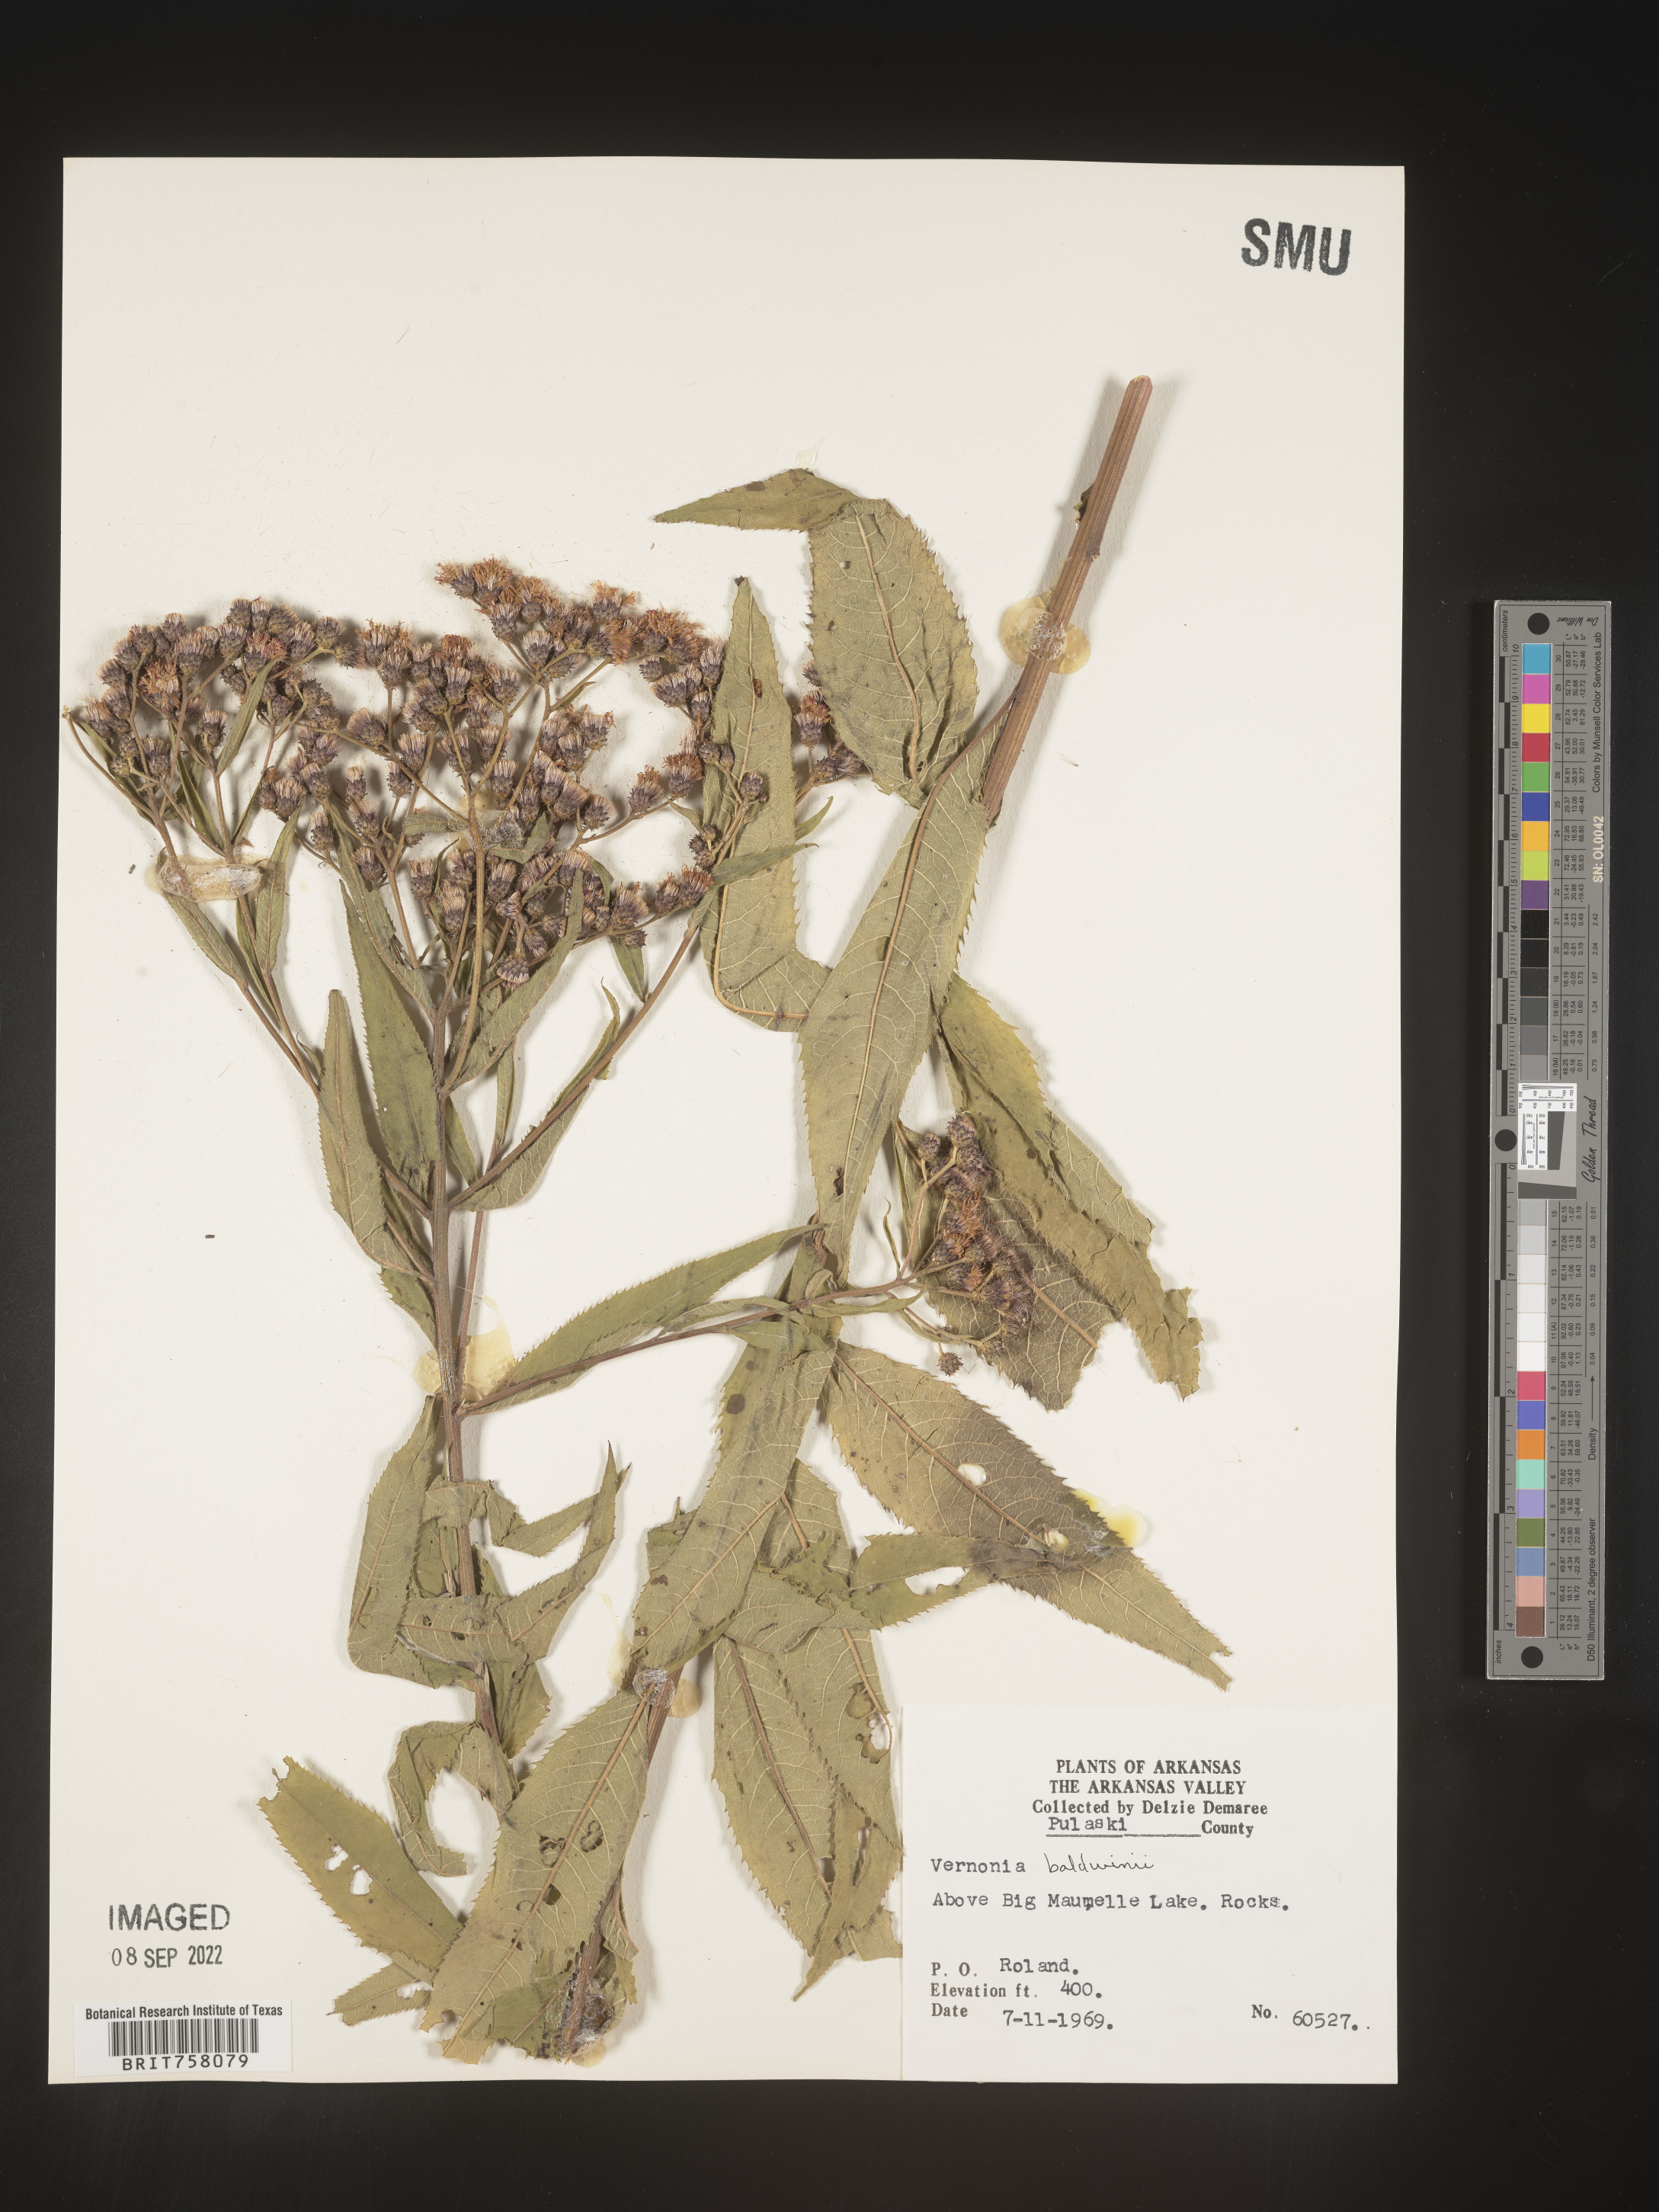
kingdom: Plantae
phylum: Tracheophyta
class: Magnoliopsida
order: Asterales
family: Asteraceae
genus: Vernonia
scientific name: Vernonia baldwinii
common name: Western ironweed
